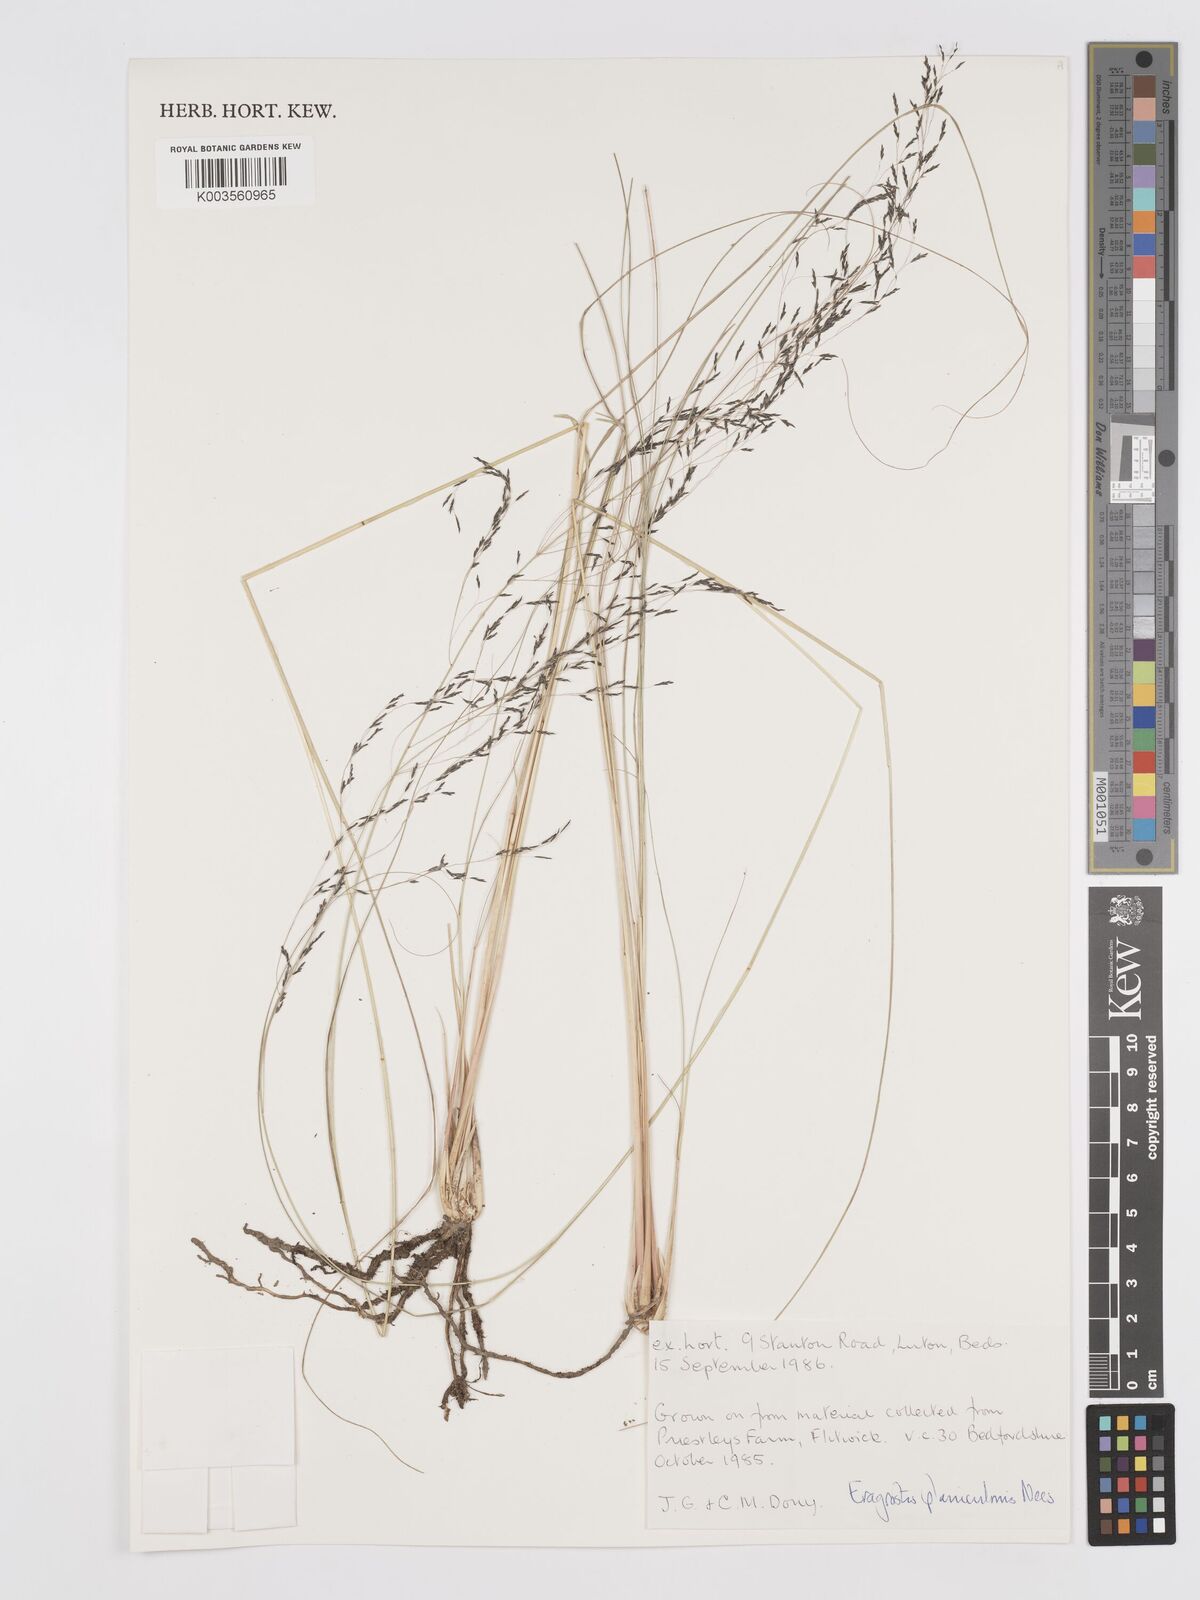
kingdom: Plantae
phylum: Tracheophyta
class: Liliopsida
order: Poales
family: Poaceae
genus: Eragrostis
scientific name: Eragrostis planiculmis
